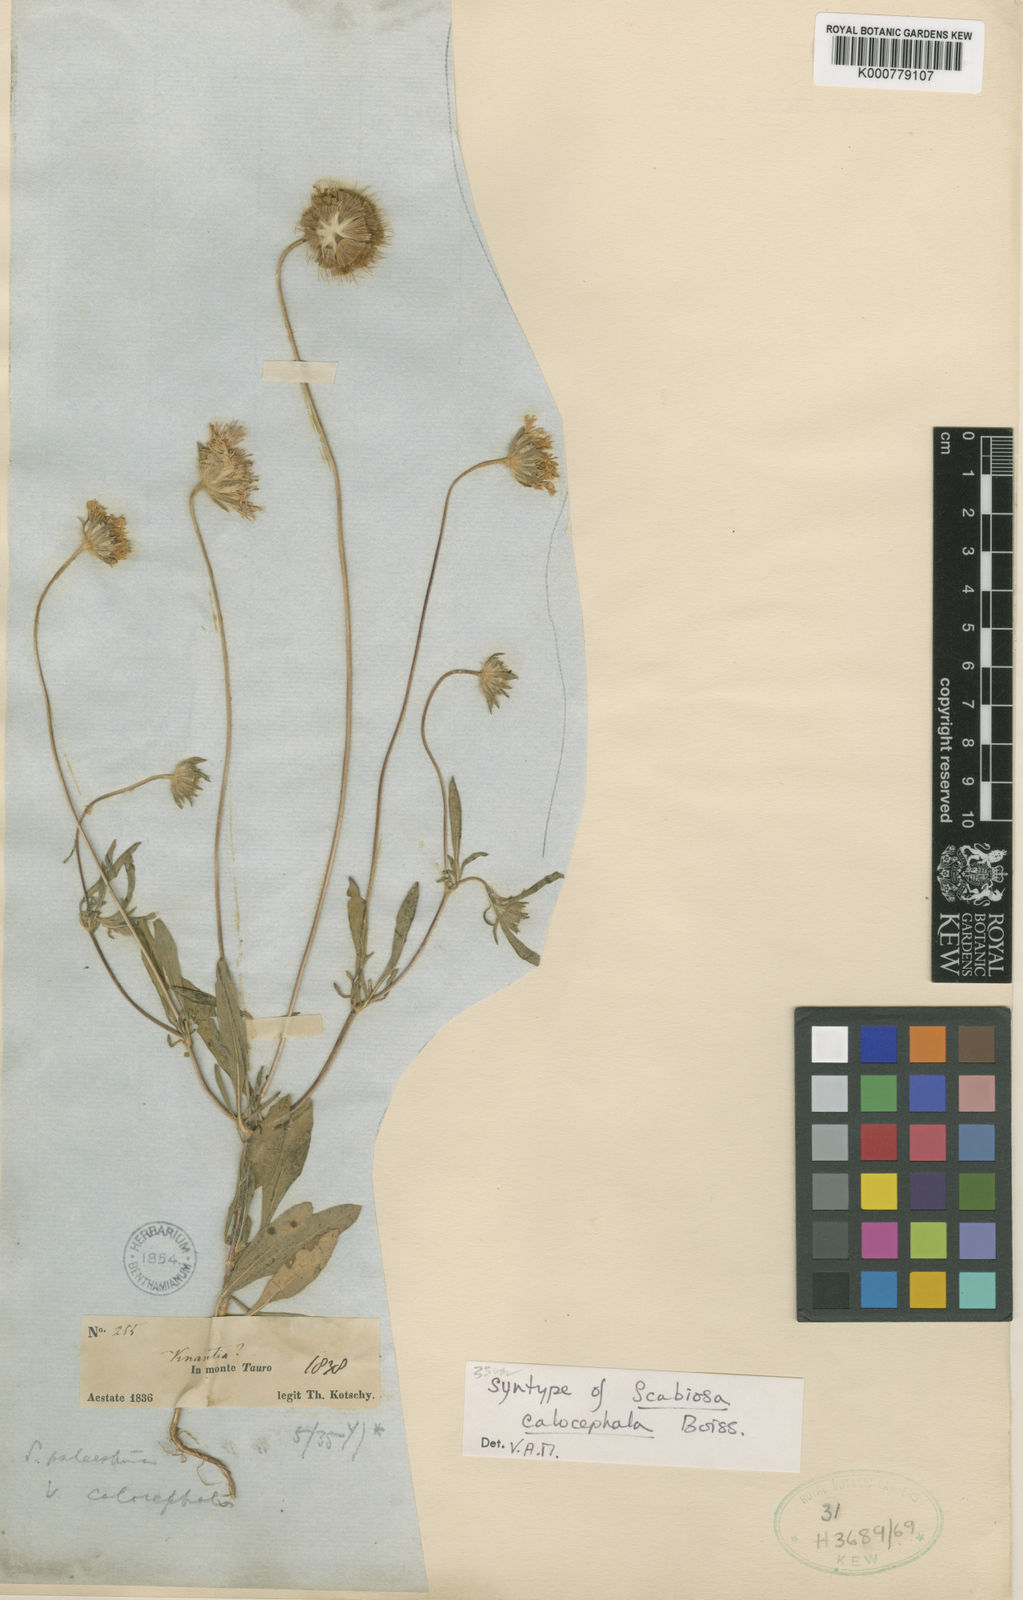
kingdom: Plantae
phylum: Tracheophyta
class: Magnoliopsida
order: Dipsacales
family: Caprifoliaceae
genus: Lomelosia
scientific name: Lomelosia palaestina
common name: Balkan pincushions
